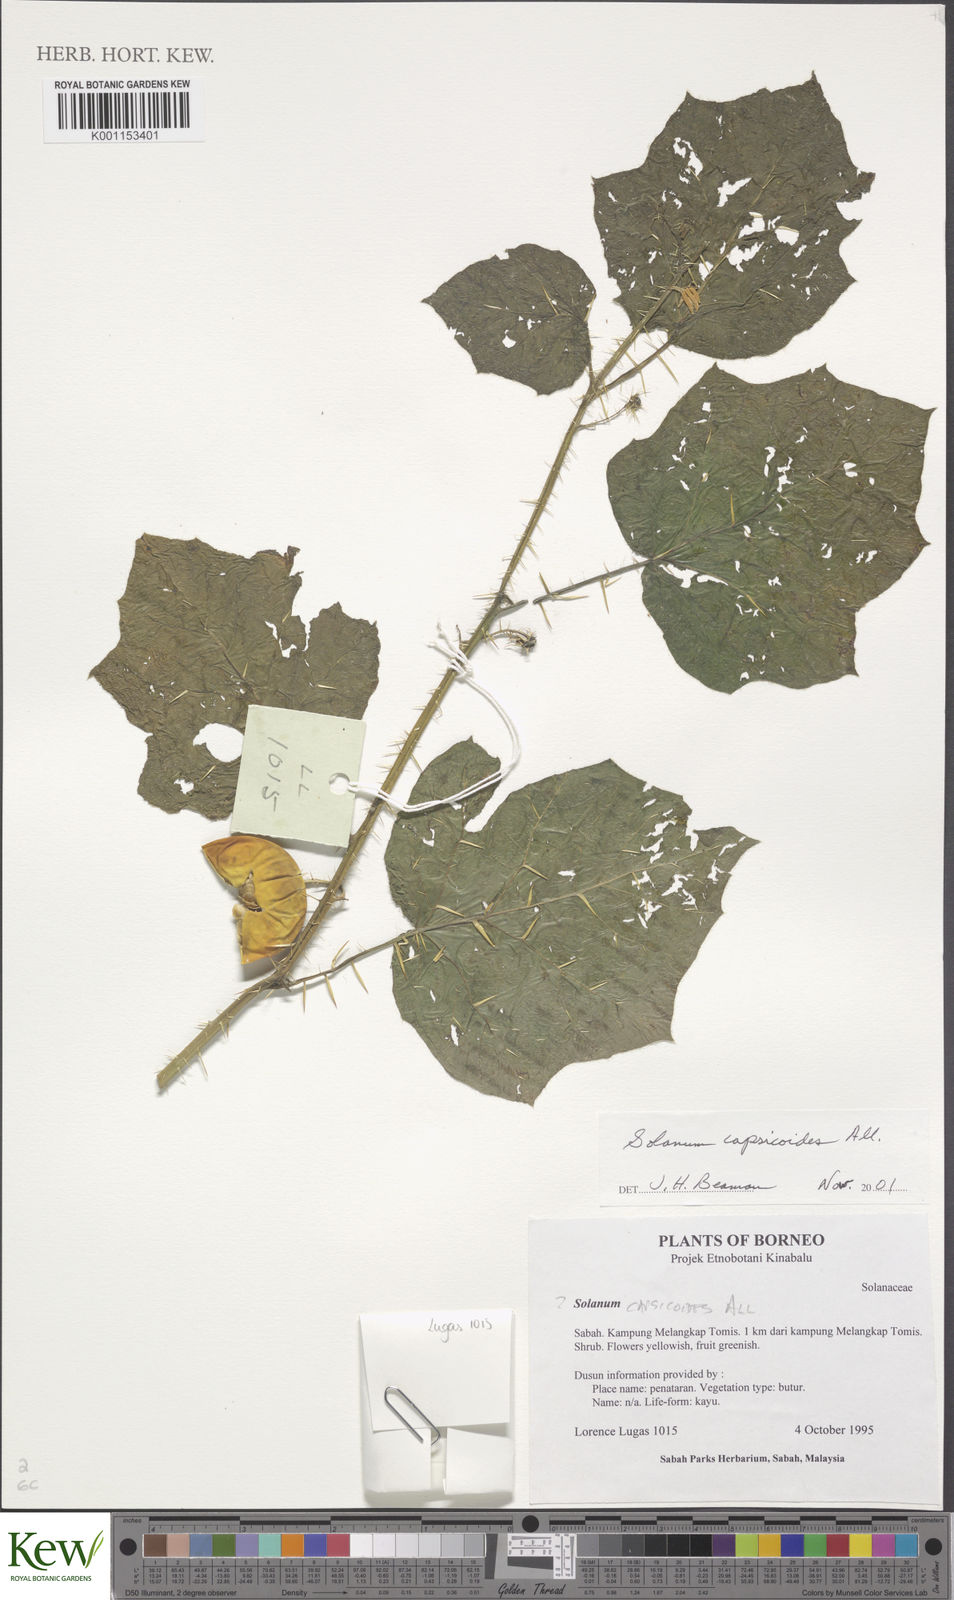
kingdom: Plantae
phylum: Tracheophyta
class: Magnoliopsida
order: Solanales
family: Solanaceae
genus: Solanum
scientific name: Solanum capsicoides
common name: Cockroach berry
